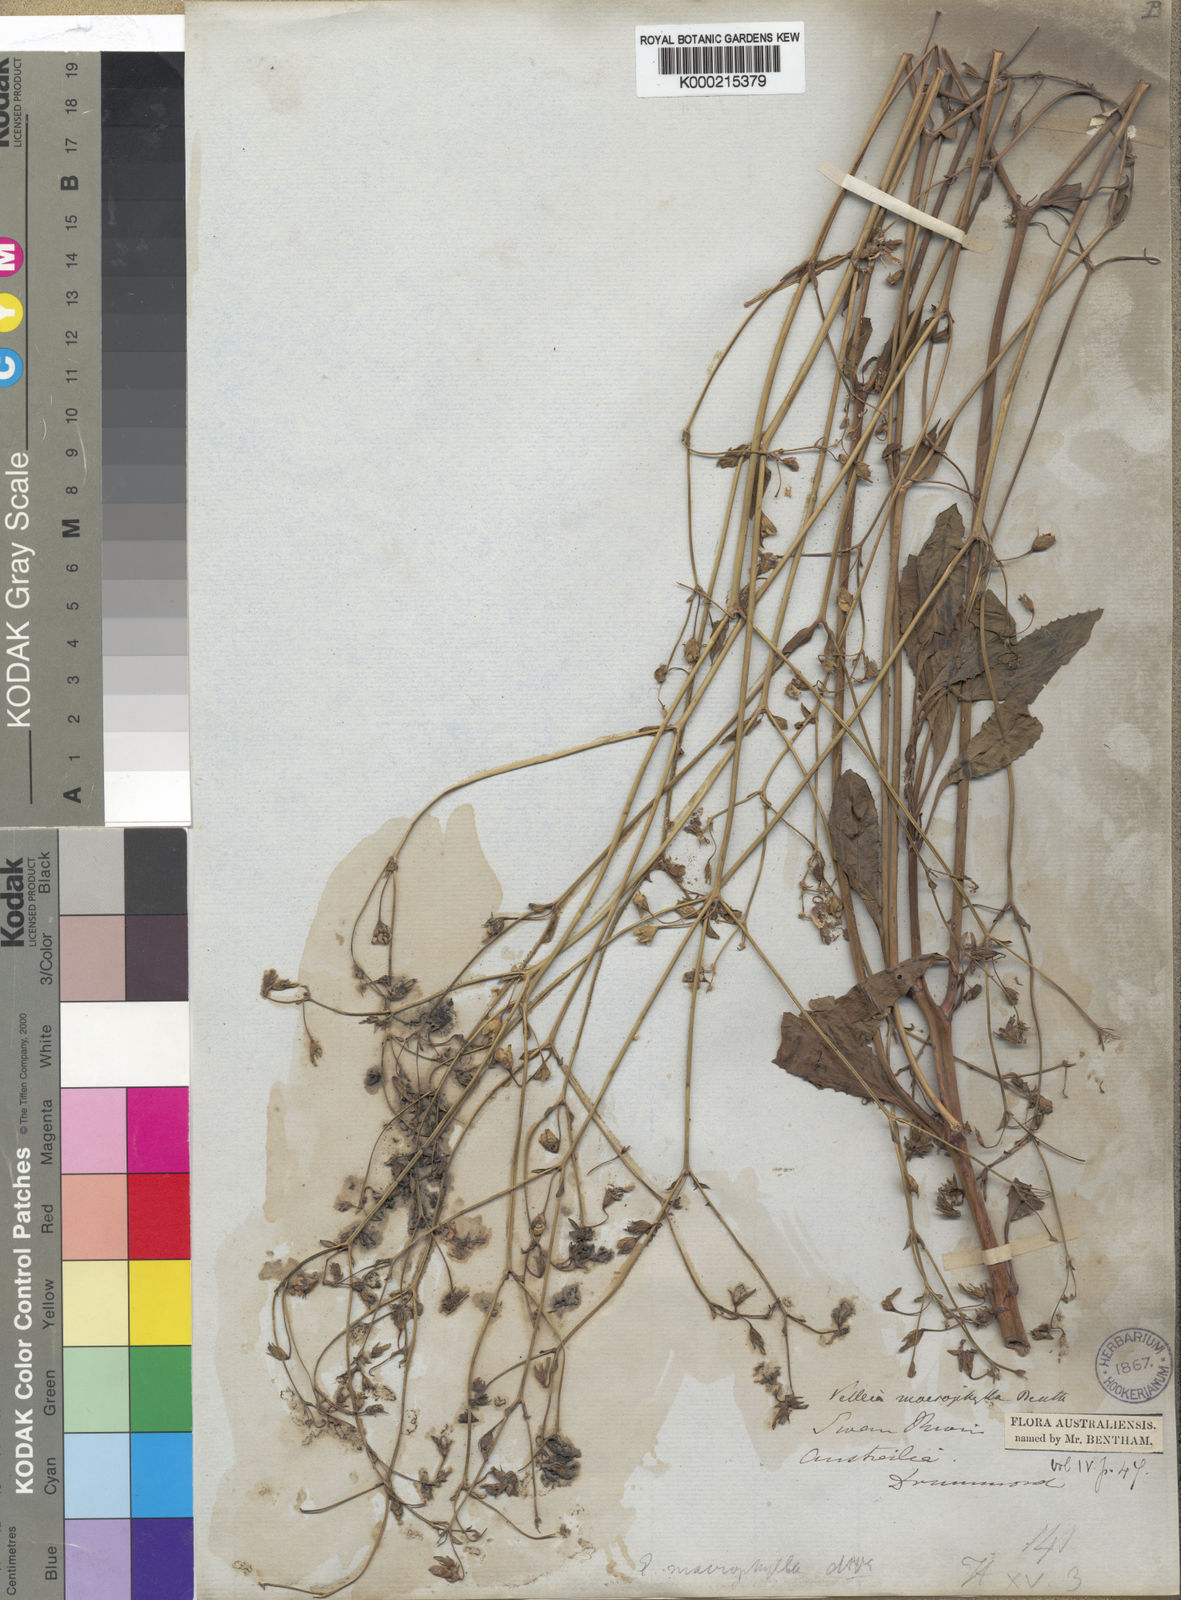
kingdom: Plantae
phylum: Tracheophyta
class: Magnoliopsida
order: Asterales
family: Goodeniaceae
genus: Goodenia
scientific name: Goodenia macrophylla
